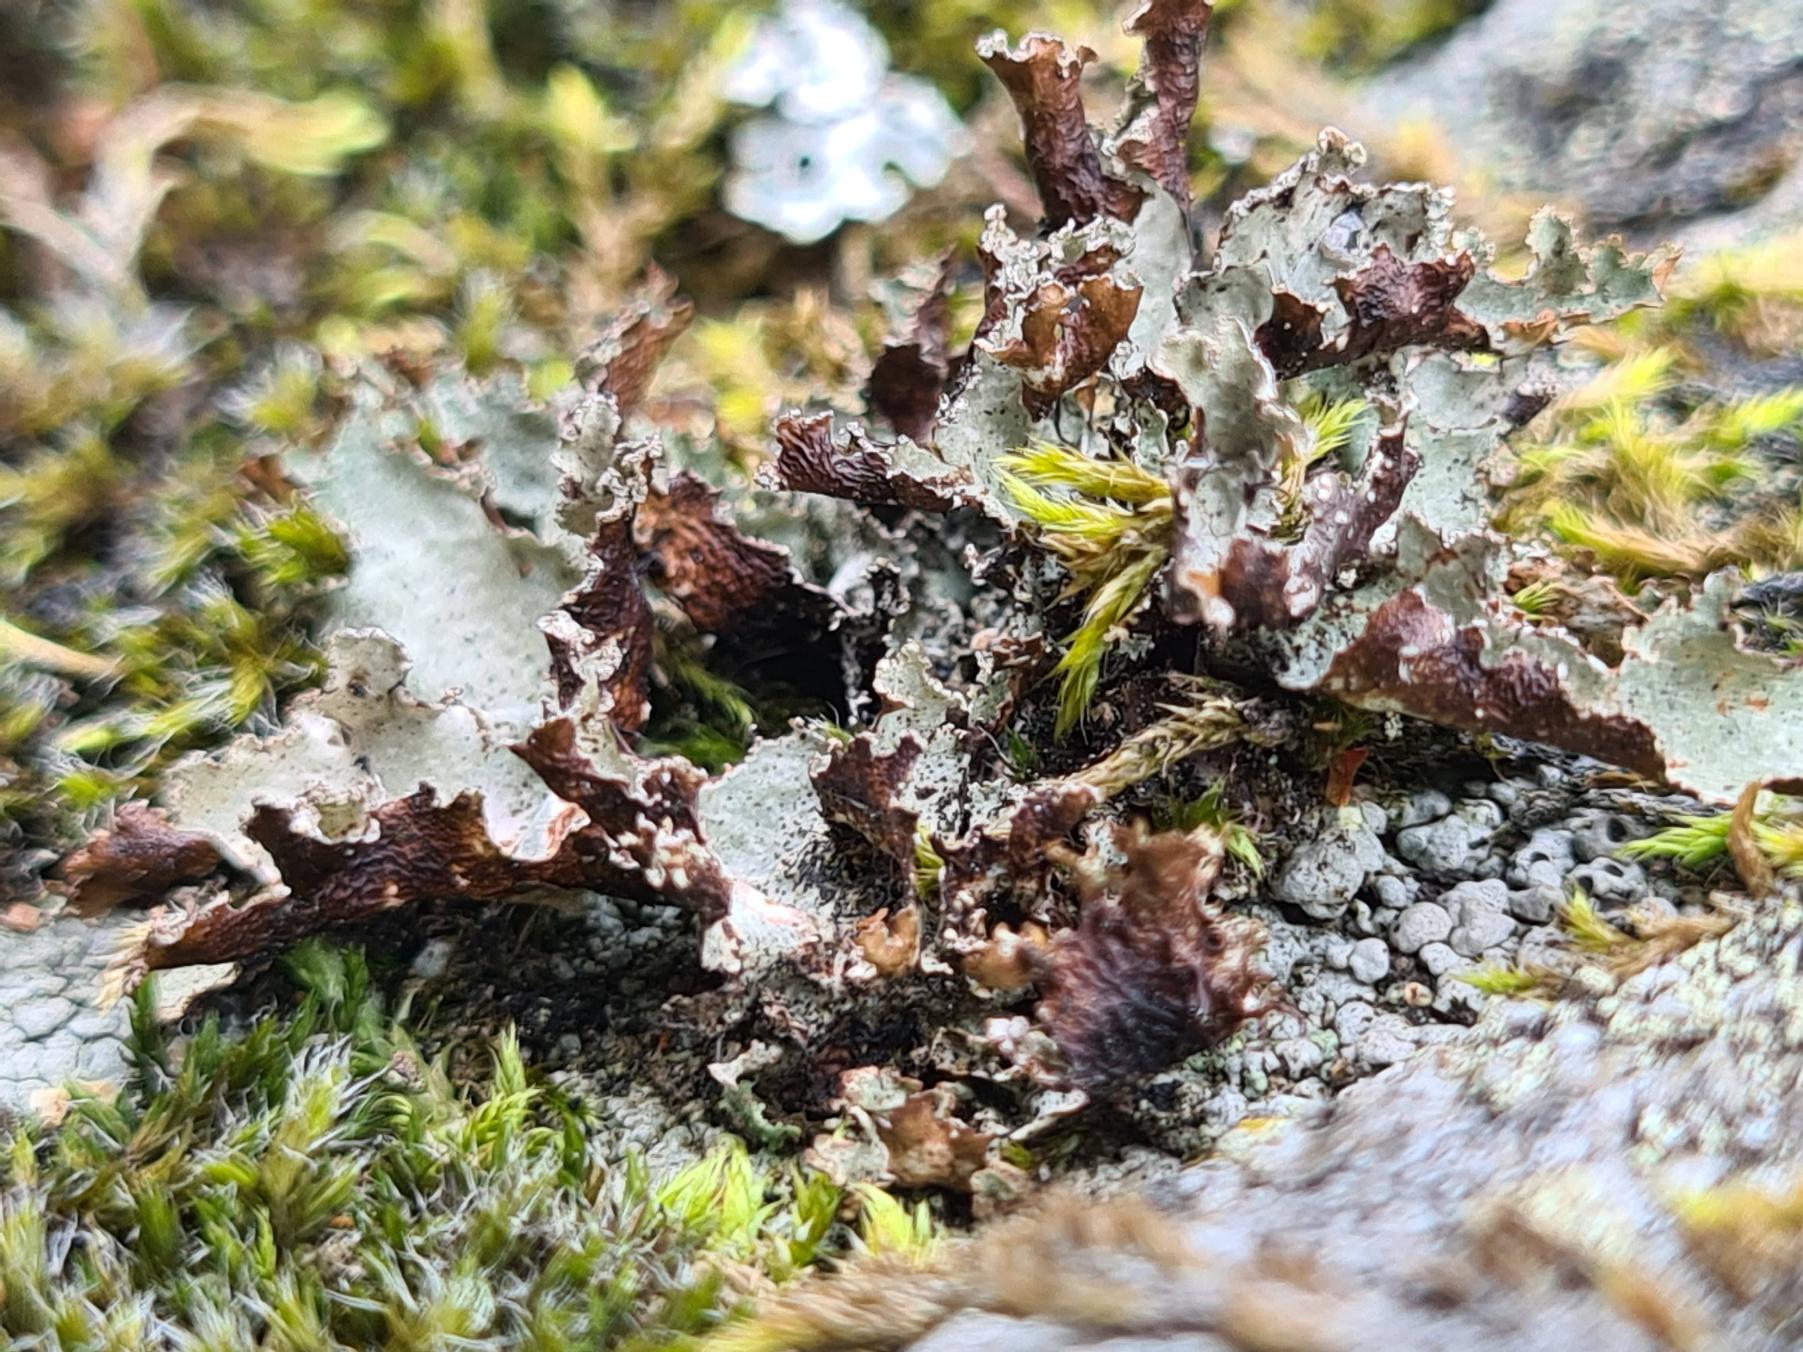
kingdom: Fungi
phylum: Ascomycota
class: Lecanoromycetes
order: Lecanorales
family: Parmeliaceae
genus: Platismatia
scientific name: Platismatia glauca
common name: Blågrå papirlav
